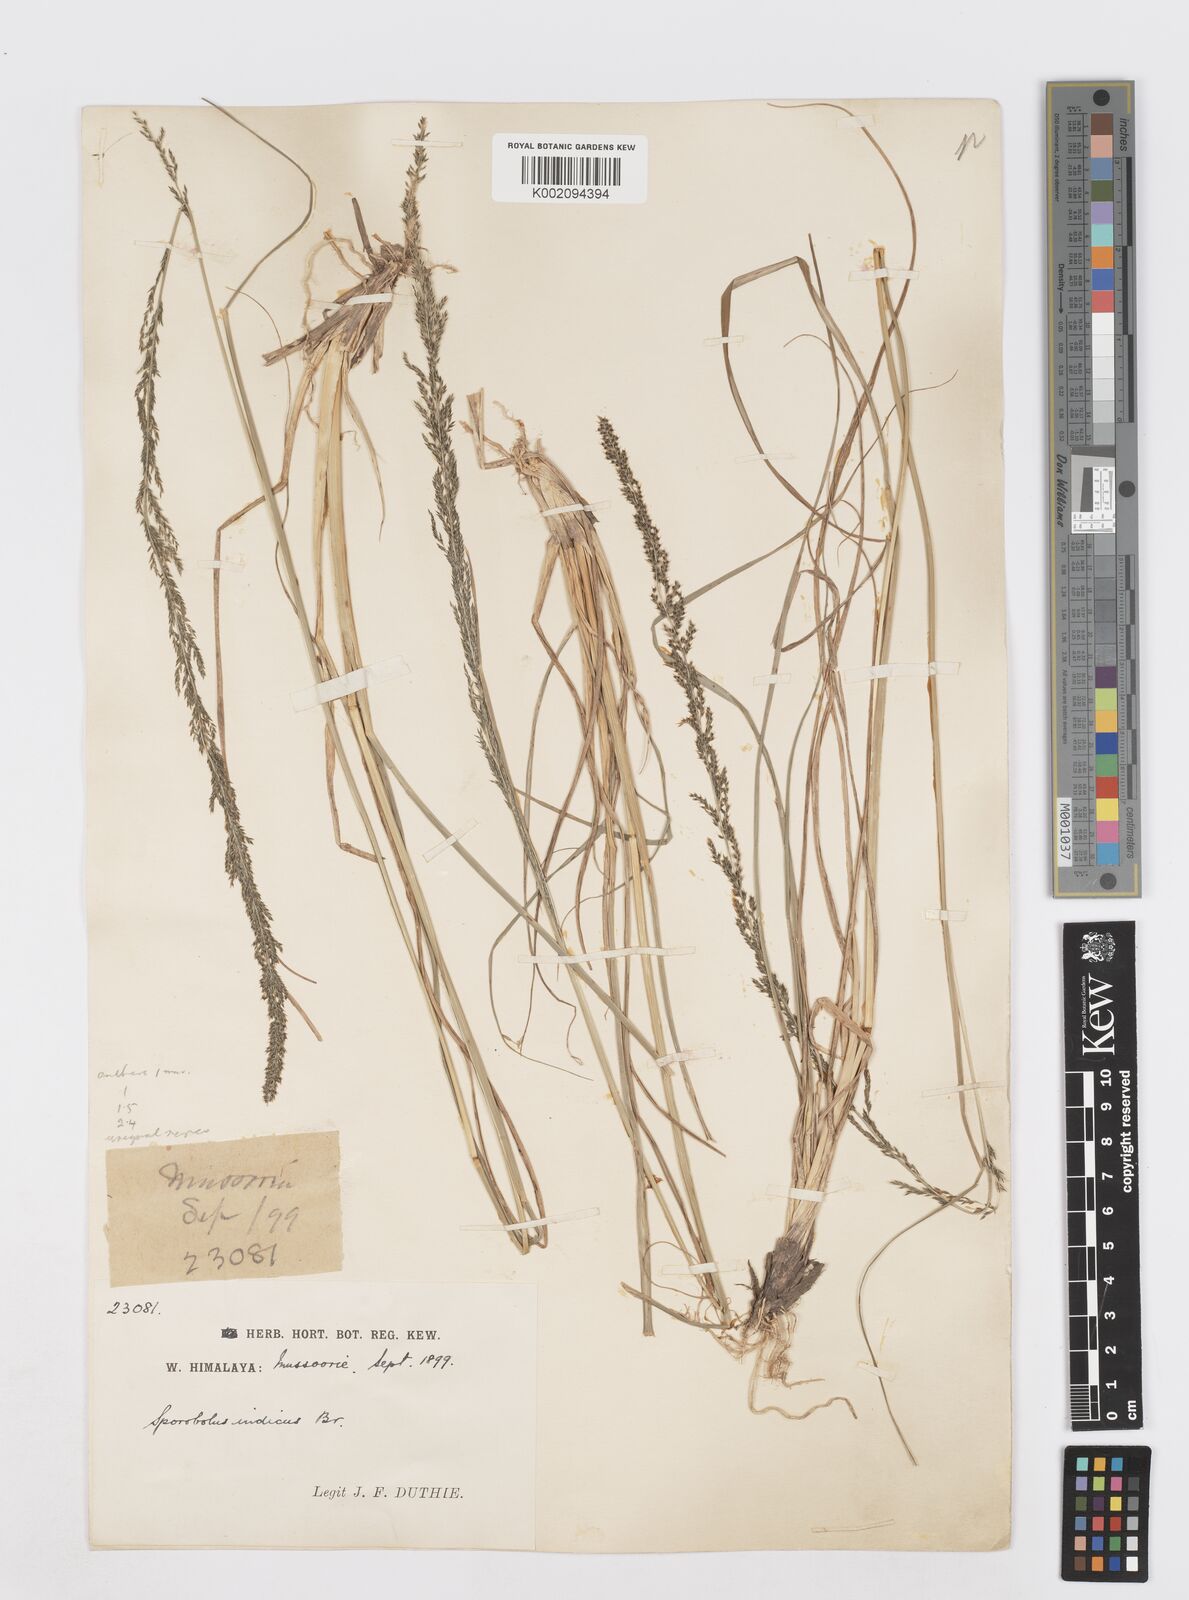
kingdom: Plantae
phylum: Tracheophyta
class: Liliopsida
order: Poales
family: Poaceae
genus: Sporobolus
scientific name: Sporobolus fertilis
